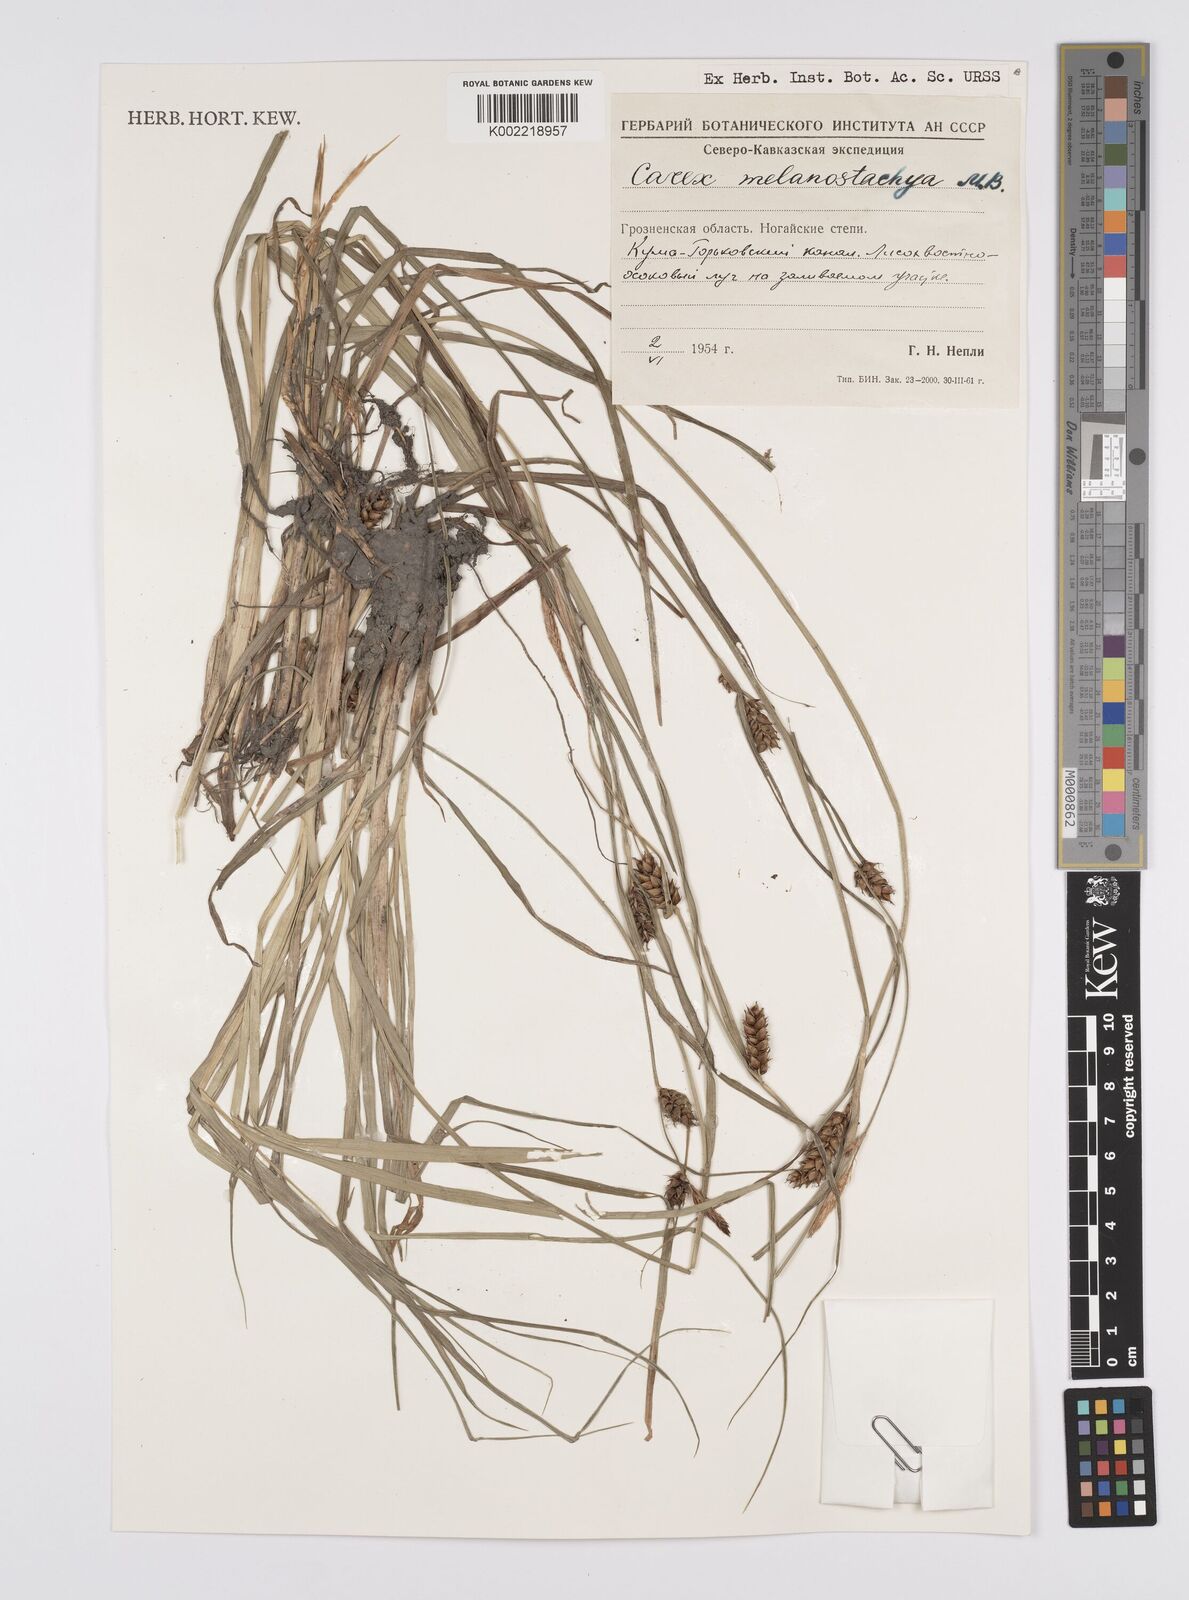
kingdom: Plantae
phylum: Tracheophyta
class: Liliopsida
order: Poales
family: Cyperaceae
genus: Carex
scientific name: Carex melanostachya
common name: Black-spiked sedge
